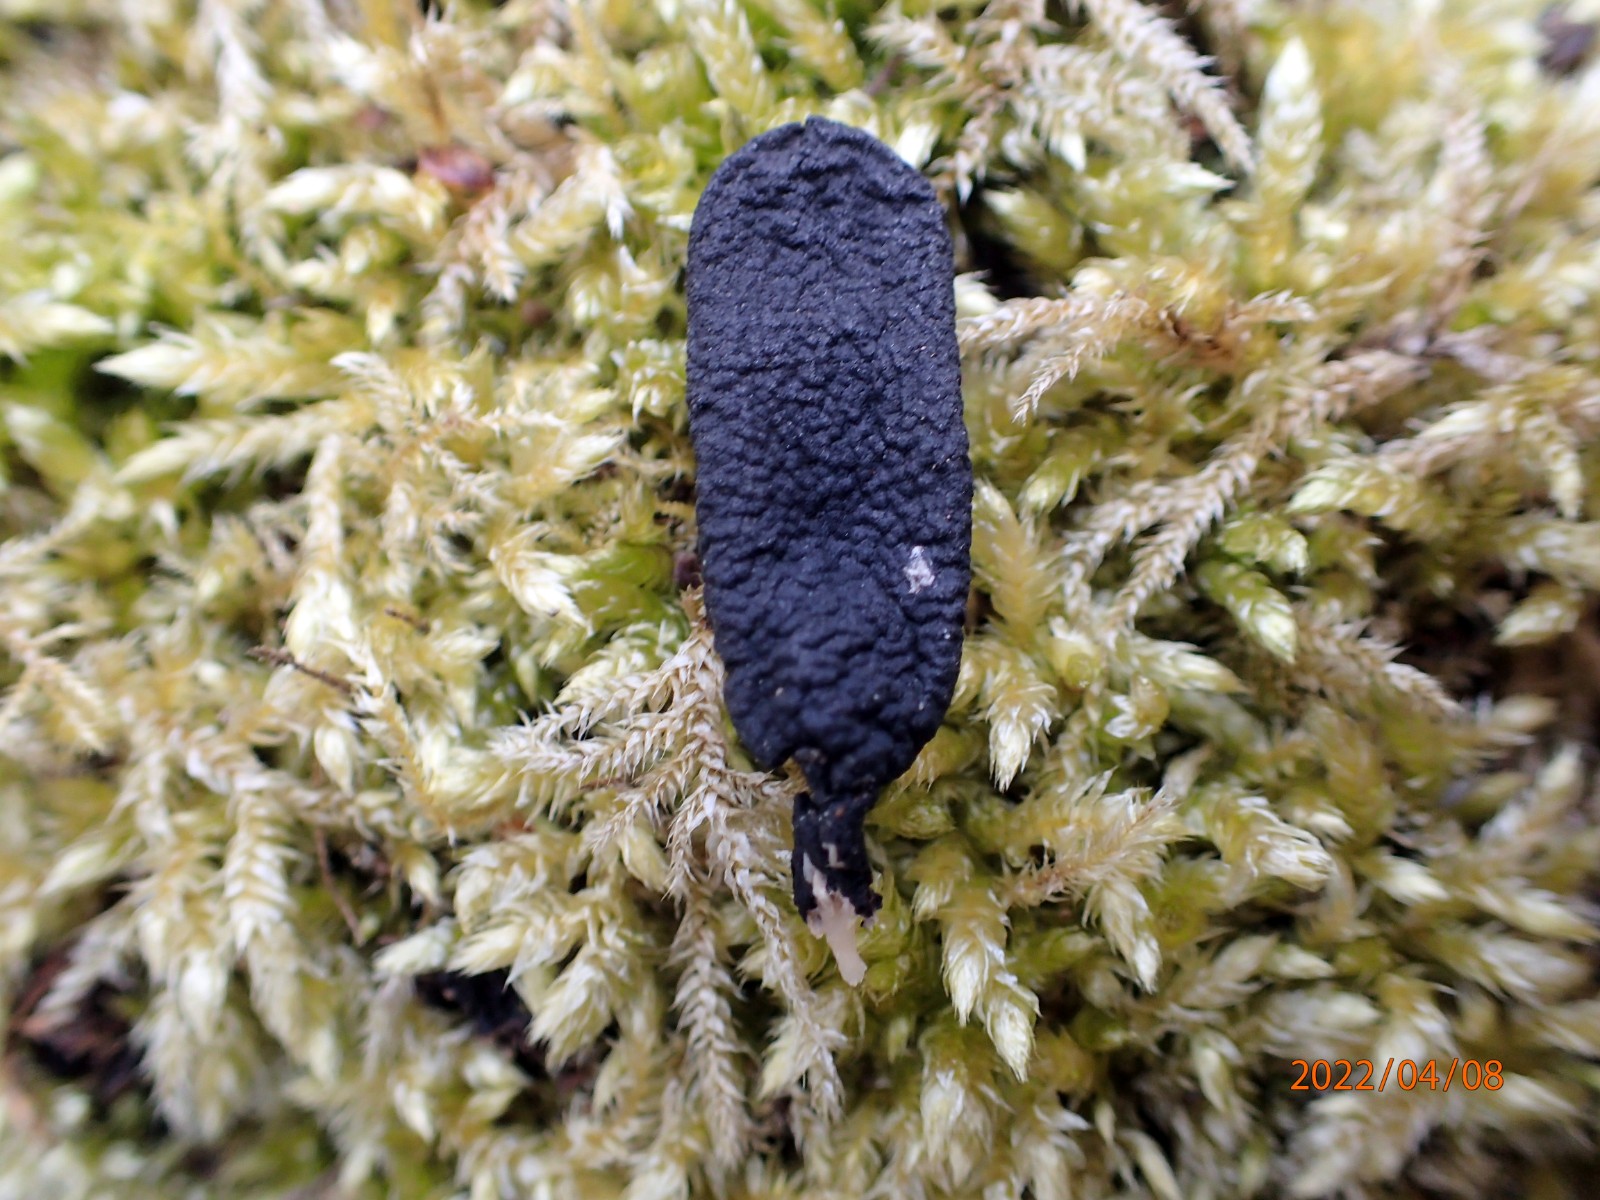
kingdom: Fungi
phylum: Ascomycota
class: Sordariomycetes
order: Xylariales
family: Xylariaceae
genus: Xylaria
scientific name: Xylaria longipes
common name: slank stødsvamp
